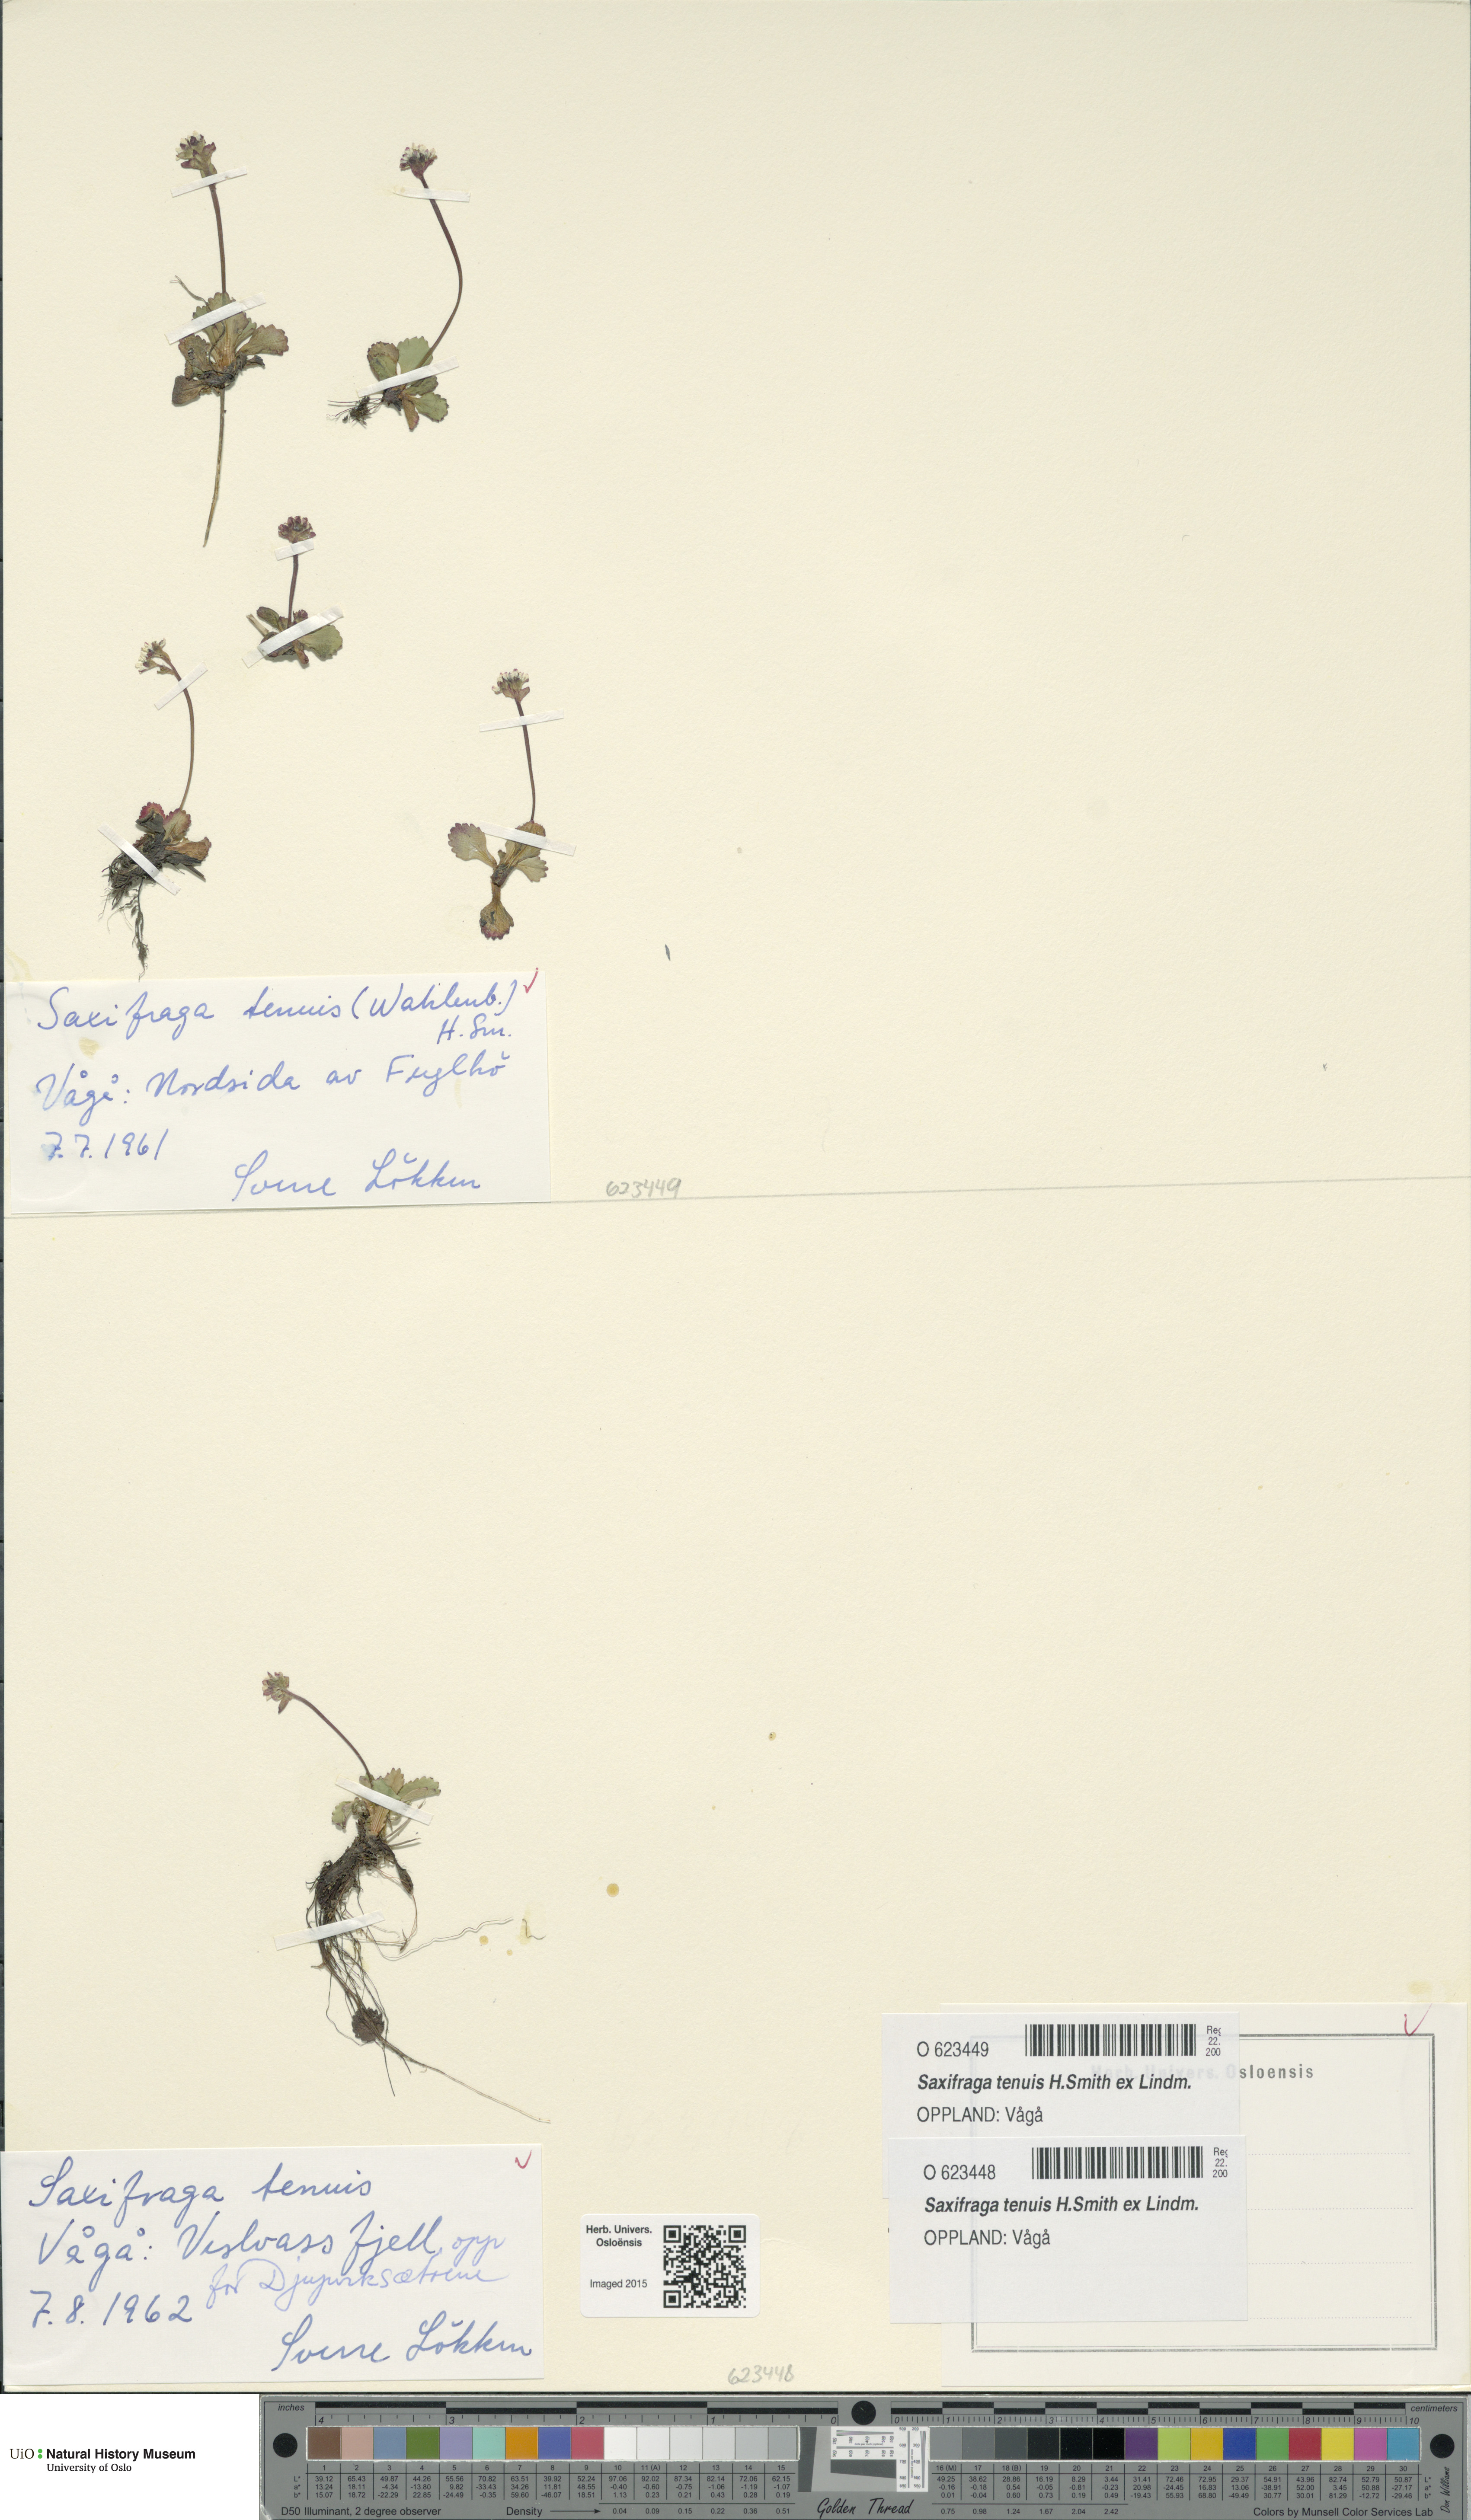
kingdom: Plantae
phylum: Tracheophyta
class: Magnoliopsida
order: Saxifragales
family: Saxifragaceae
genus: Micranthes
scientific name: Micranthes tenuis
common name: Ottertail pass saxifrage
